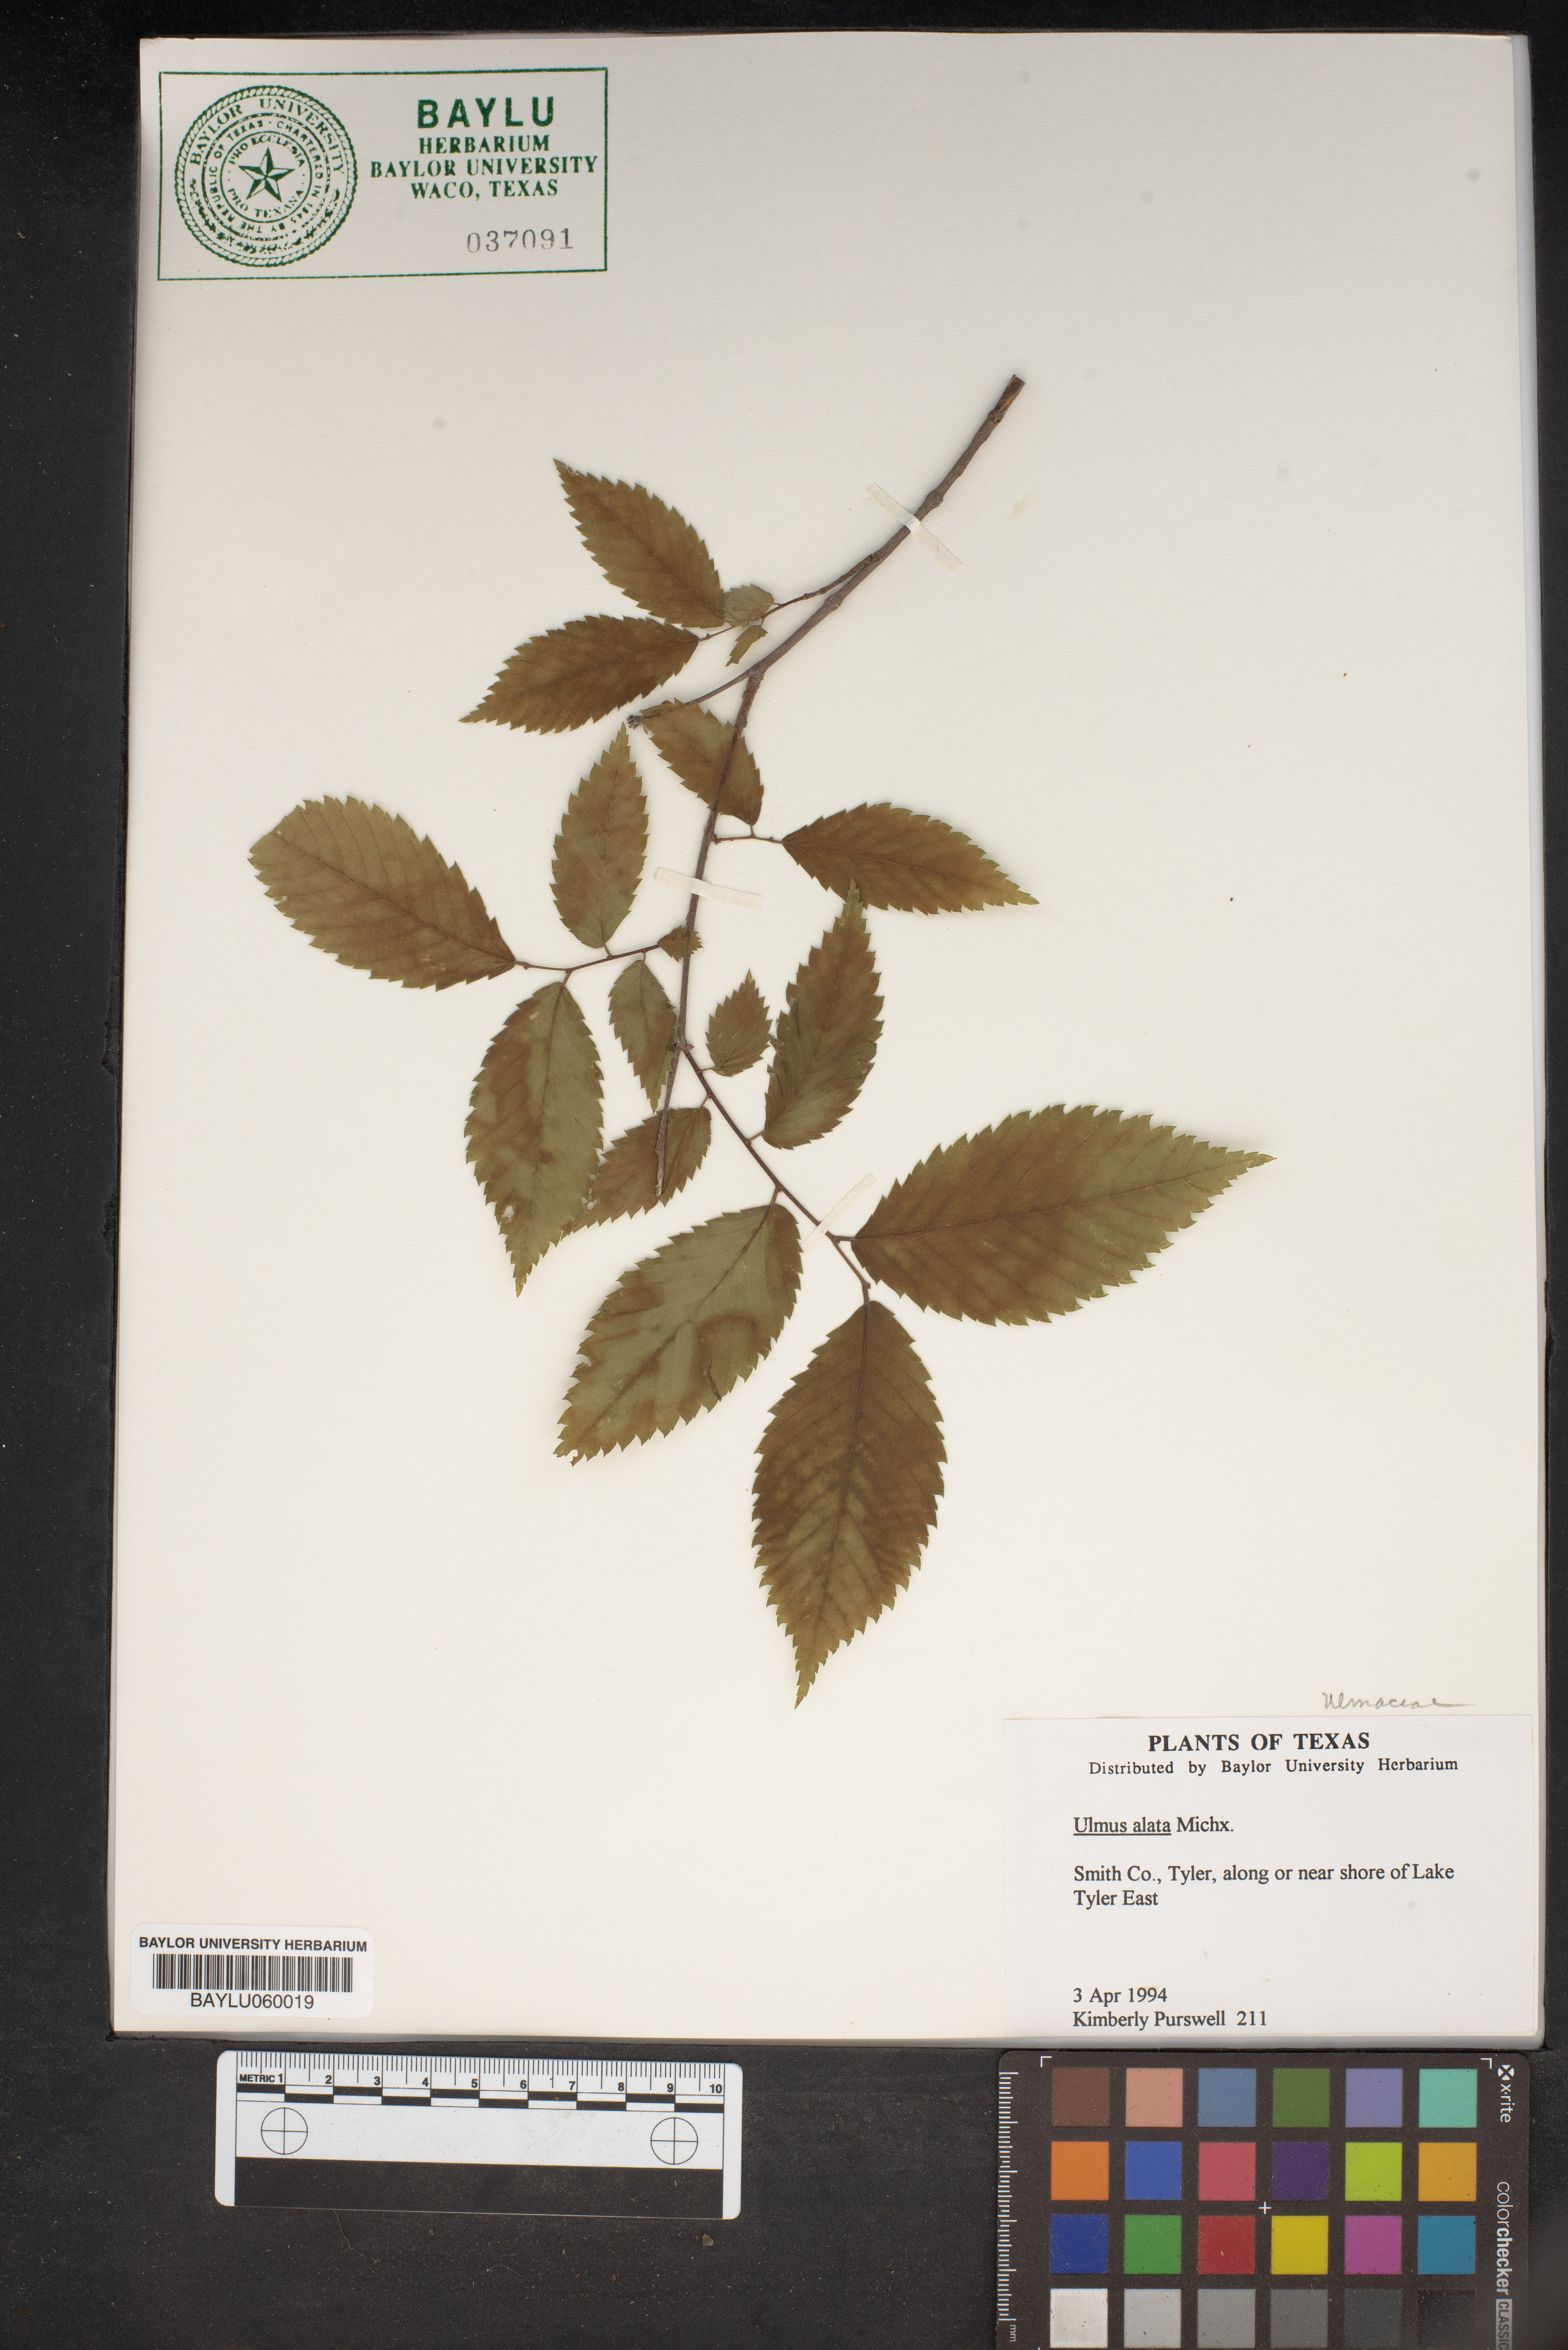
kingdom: Plantae
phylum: Tracheophyta
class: Magnoliopsida
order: Rosales
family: Ulmaceae
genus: Ulmus
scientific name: Ulmus alata
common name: Winged elm
